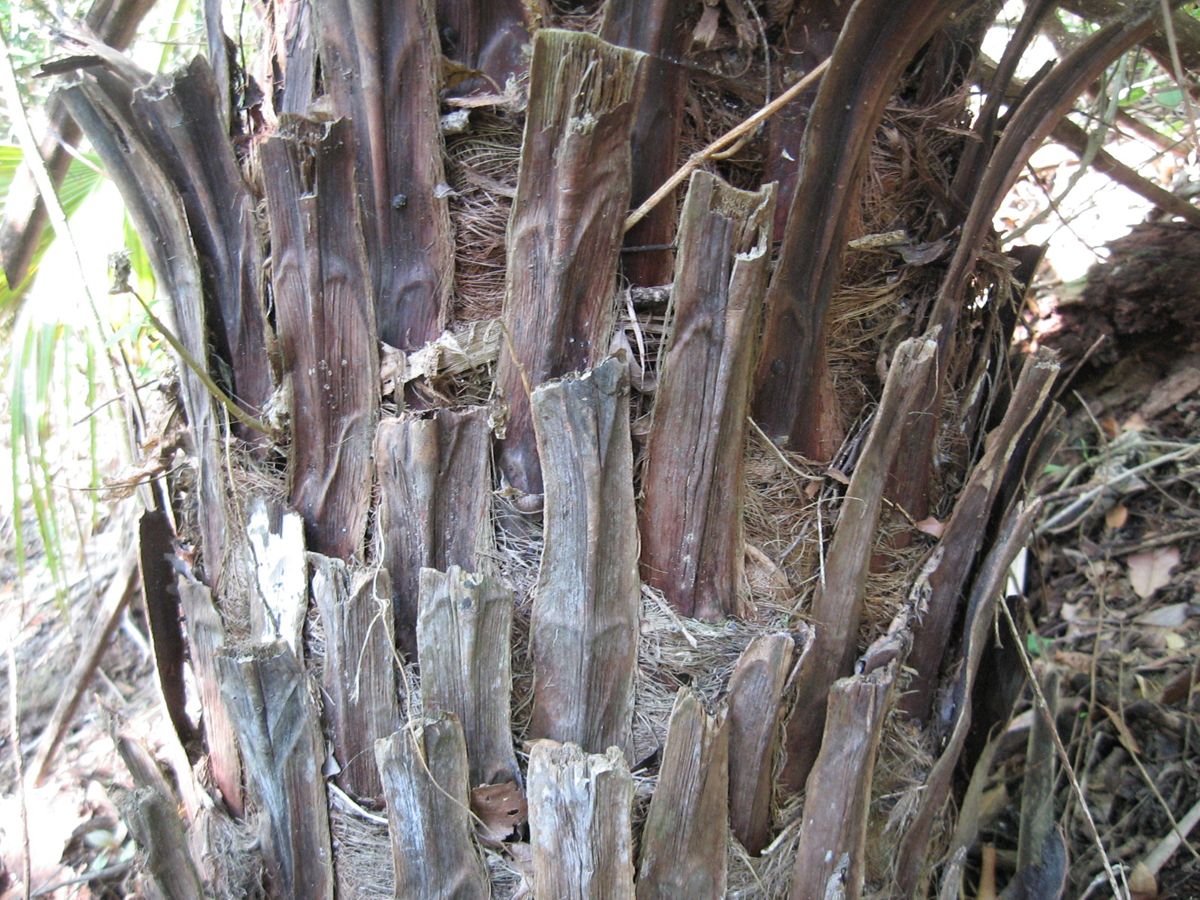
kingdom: Plantae
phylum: Tracheophyta
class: Liliopsida
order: Arecales
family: Arecaceae
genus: Brahea
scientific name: Brahea salvadorensis
